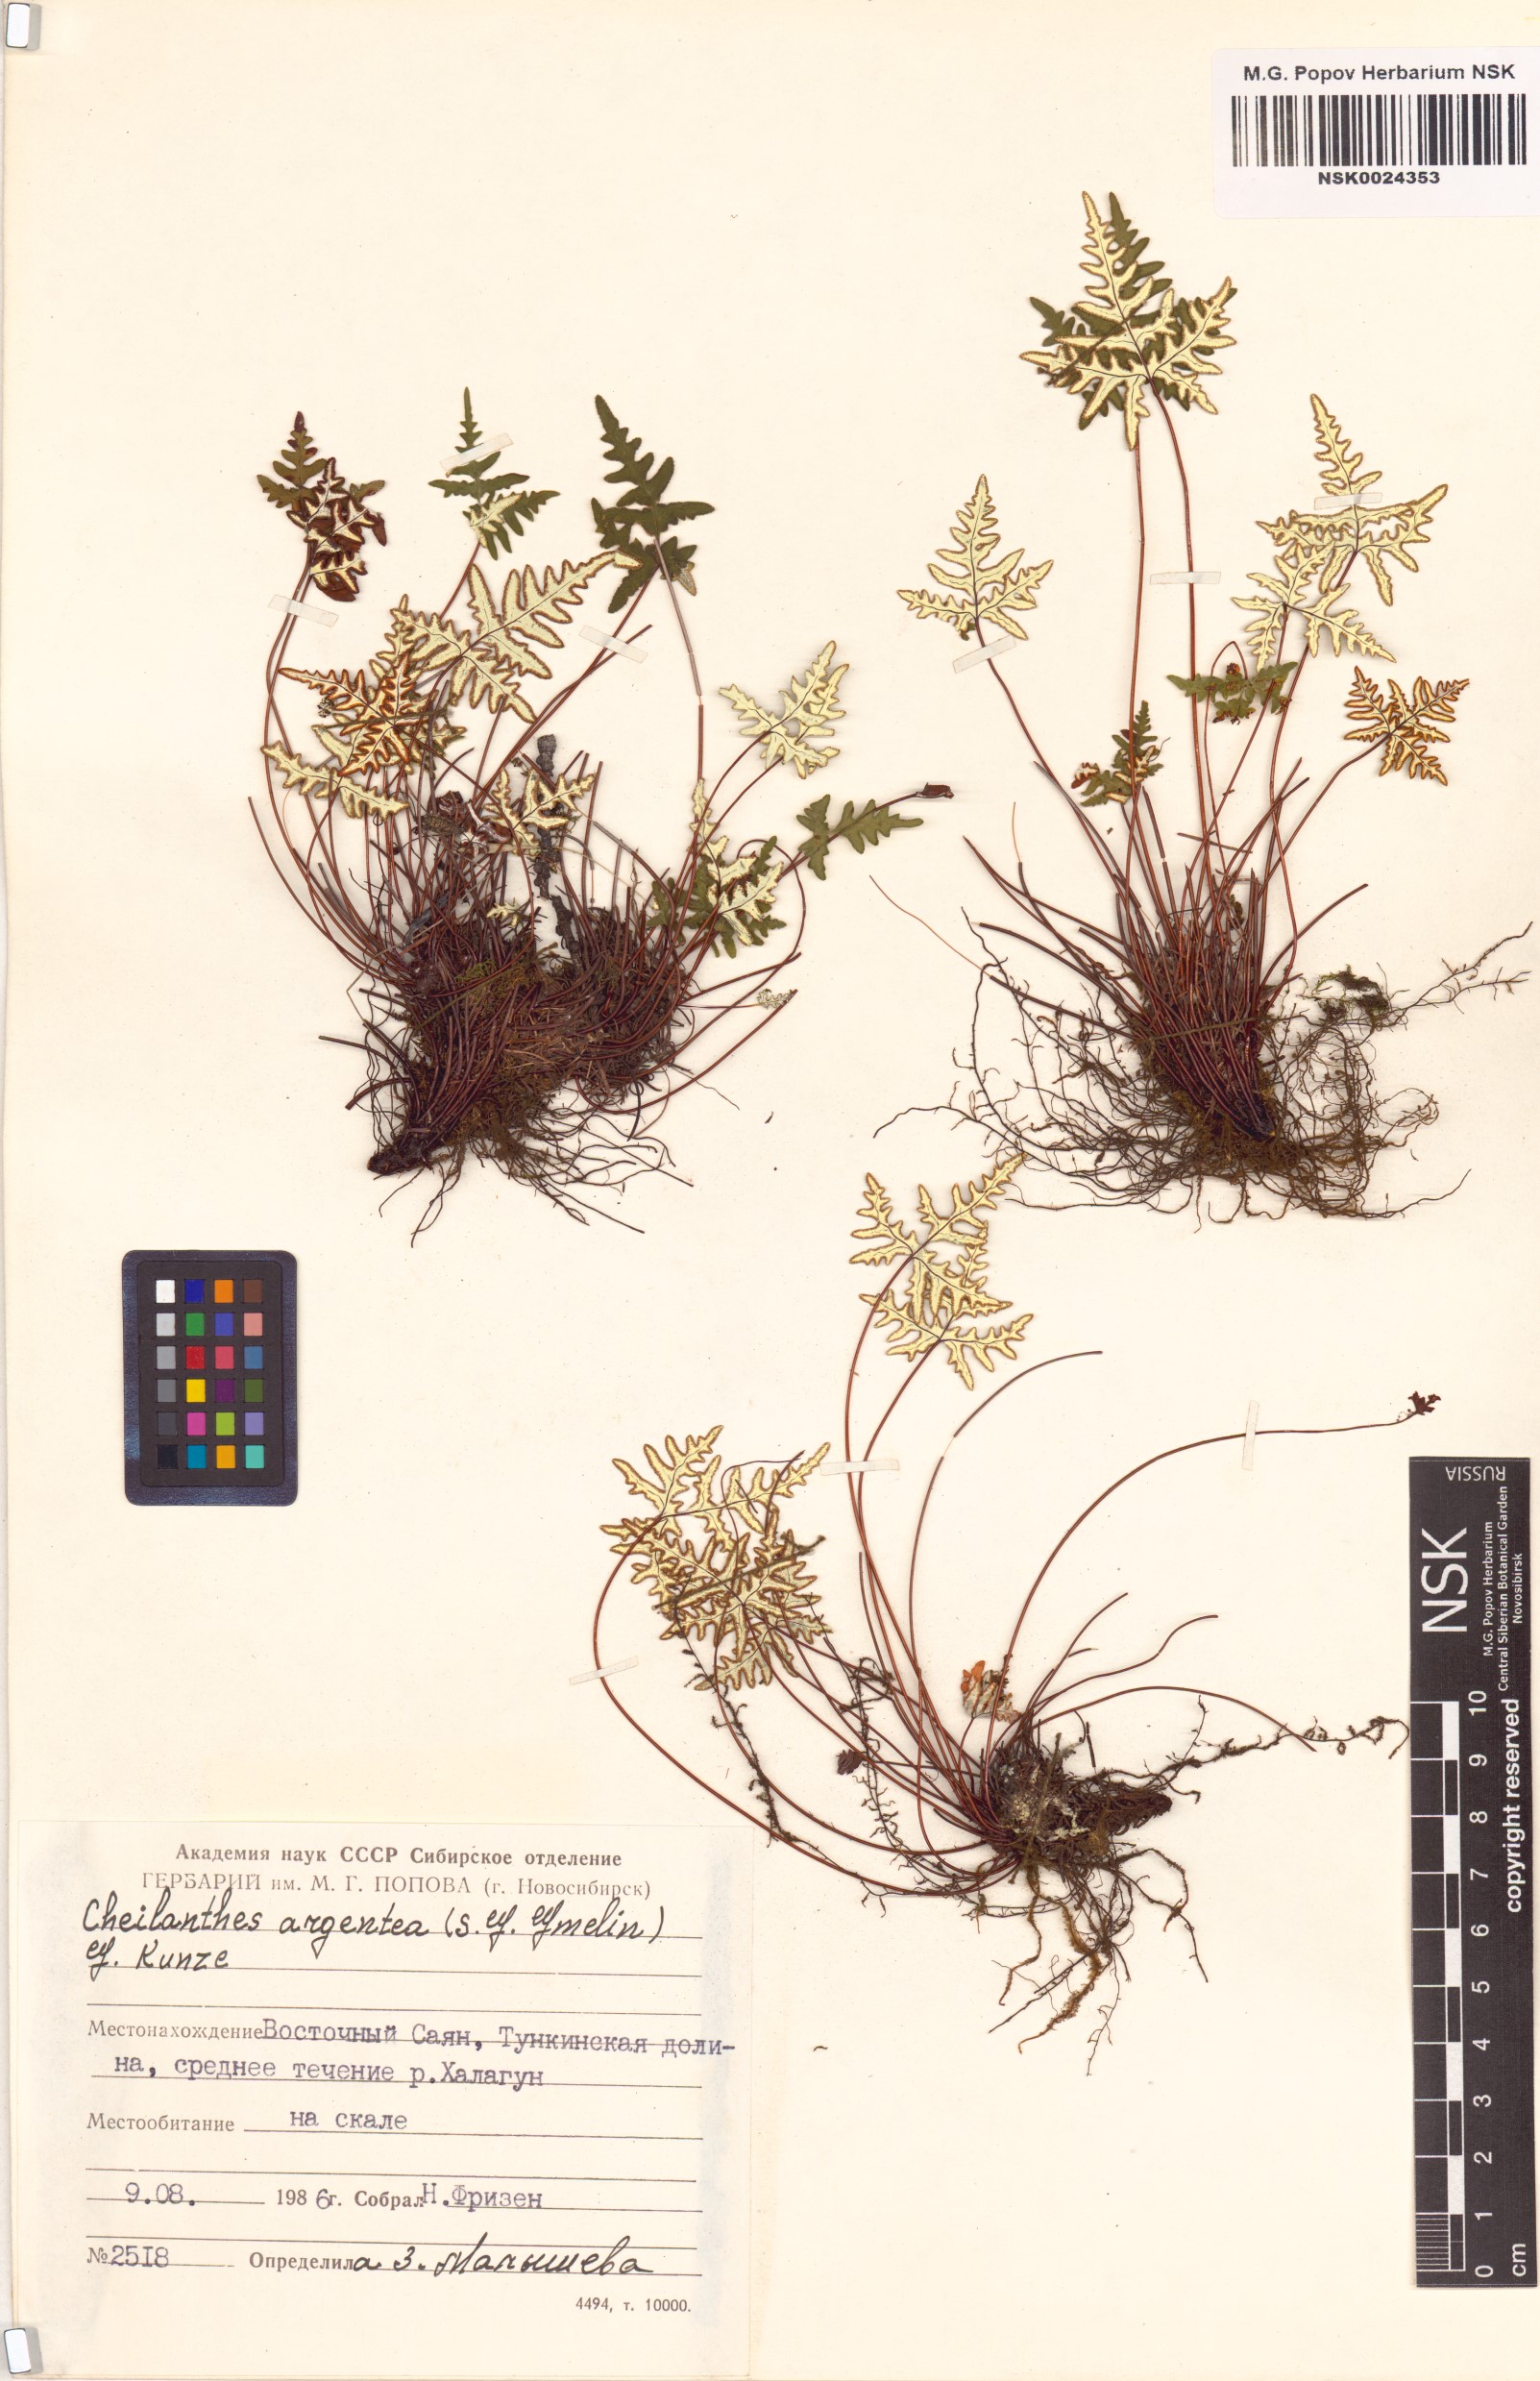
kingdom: Plantae
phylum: Tracheophyta
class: Polypodiopsida
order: Polypodiales
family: Pteridaceae
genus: Aleuritopteris
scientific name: Aleuritopteris argentea
